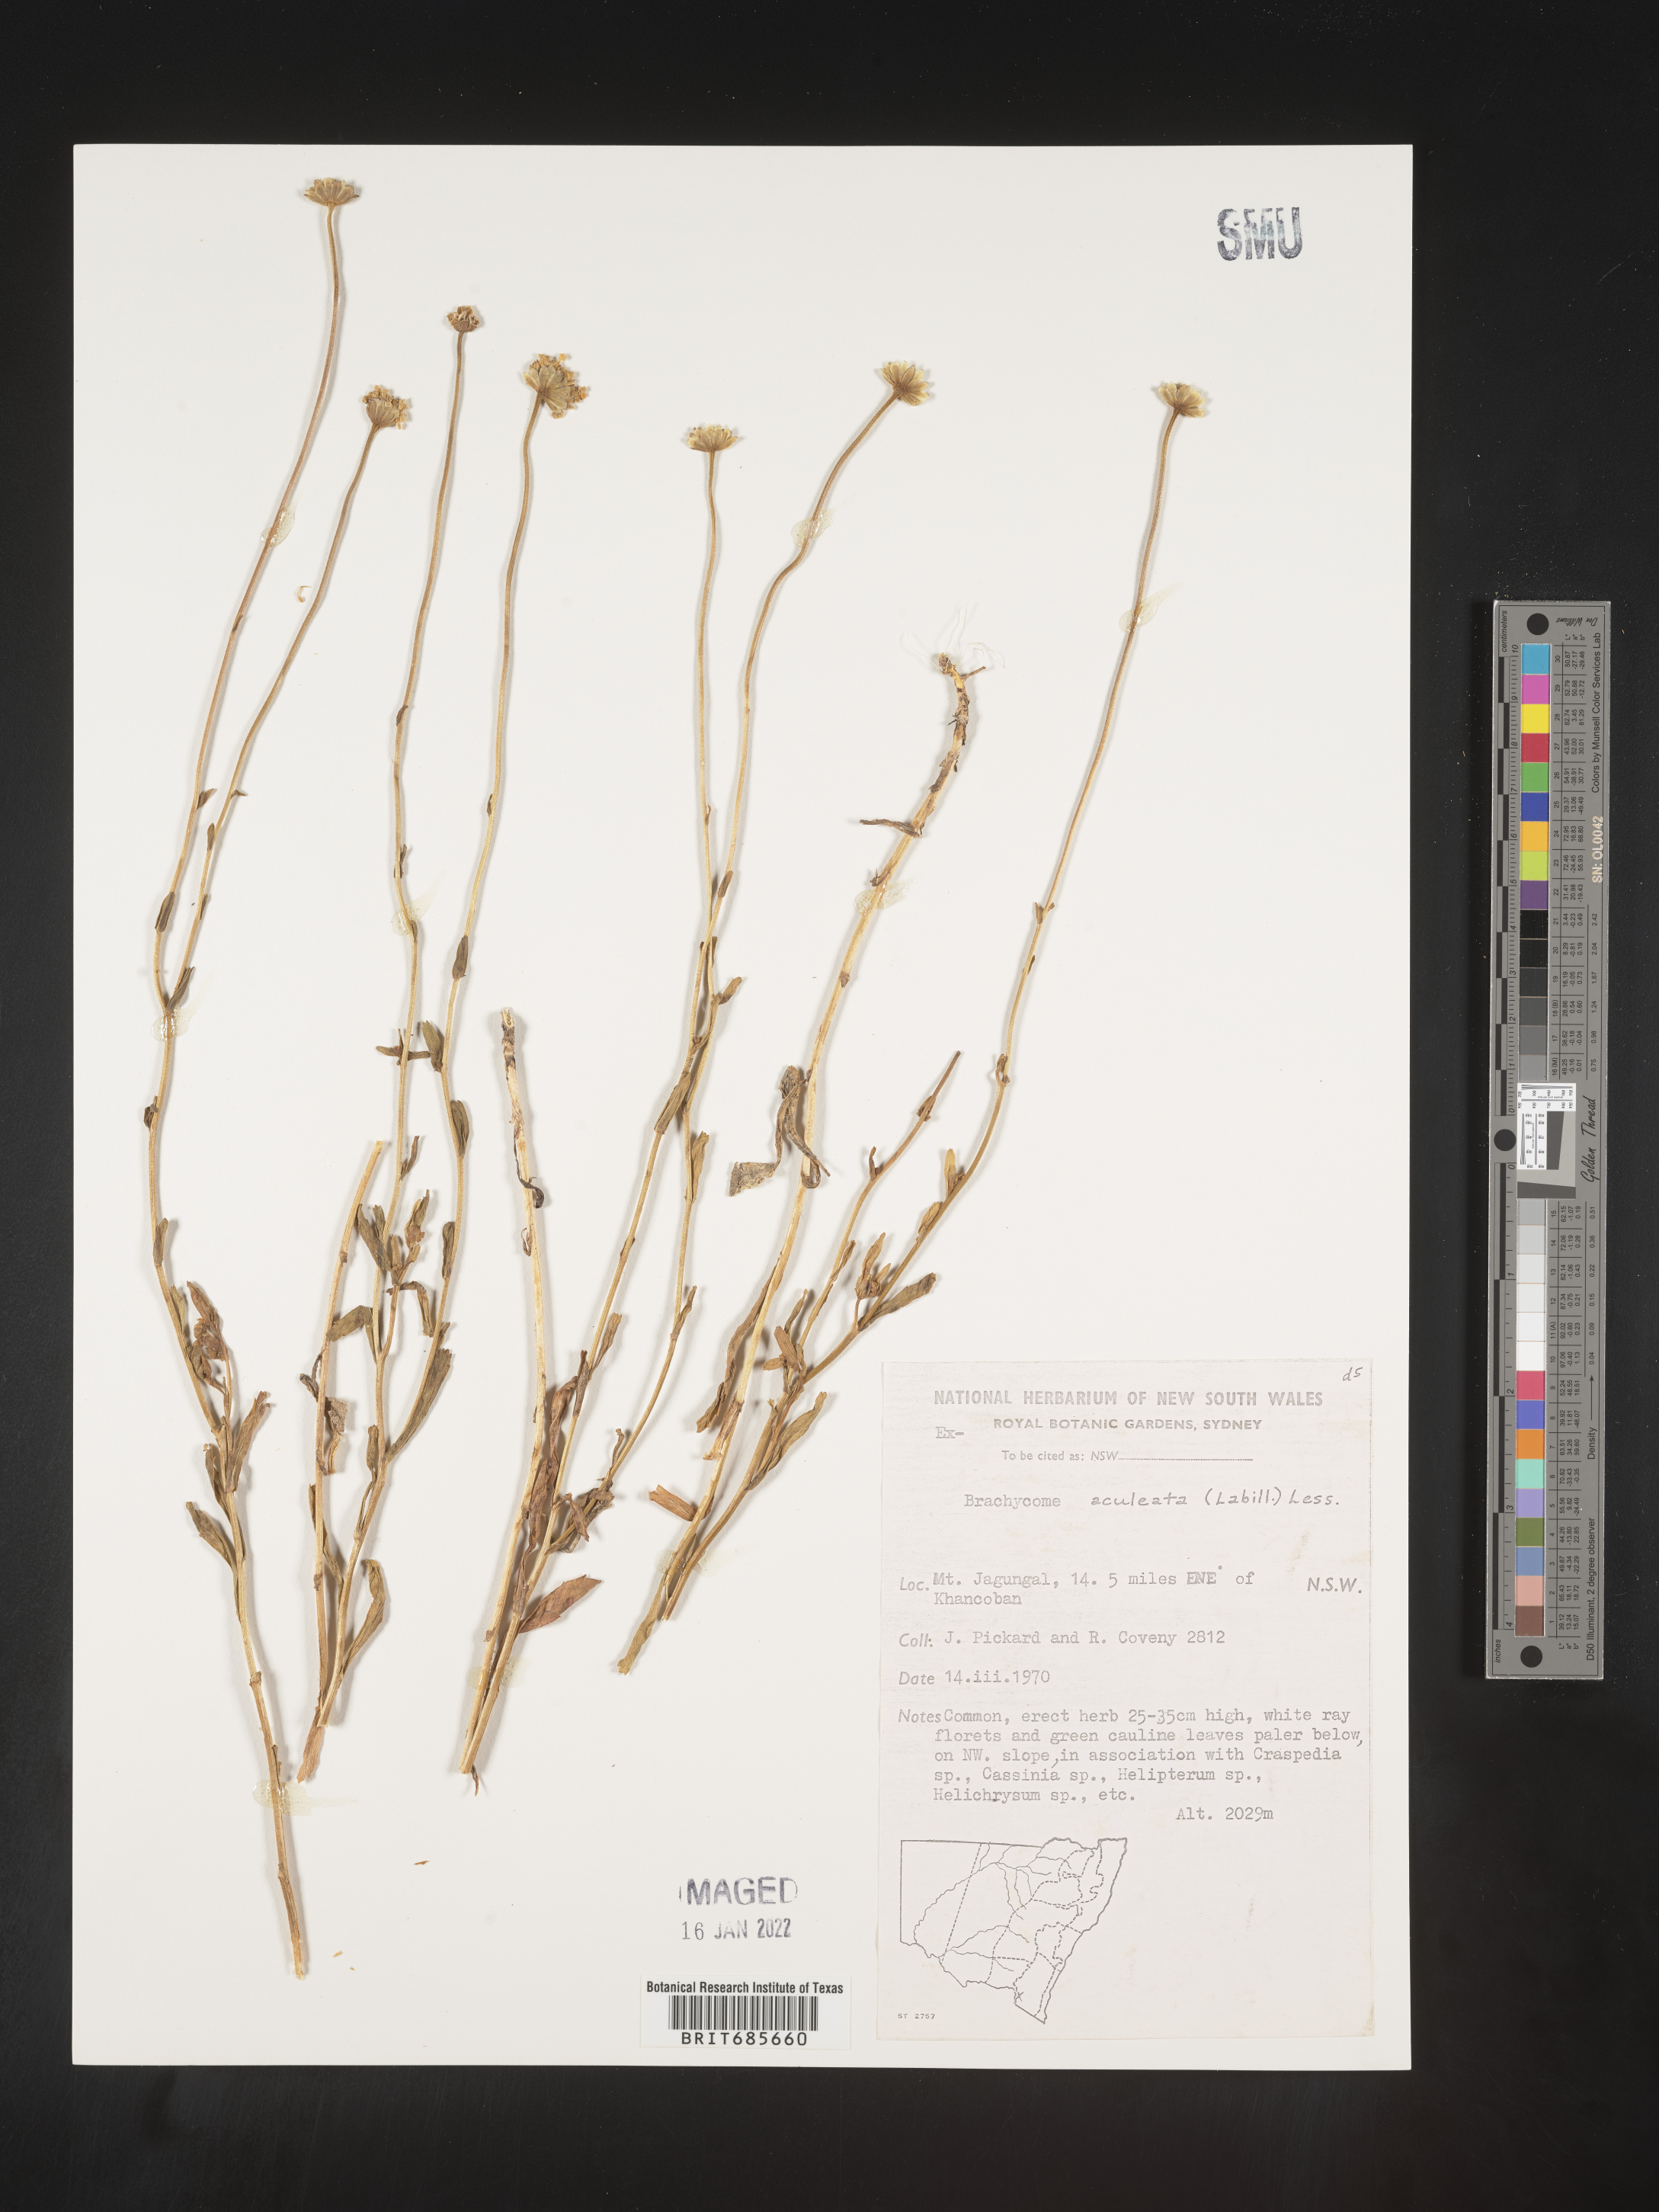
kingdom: Plantae
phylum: Tracheophyta
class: Magnoliopsida
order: Asterales
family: Asteraceae
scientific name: Asteraceae
